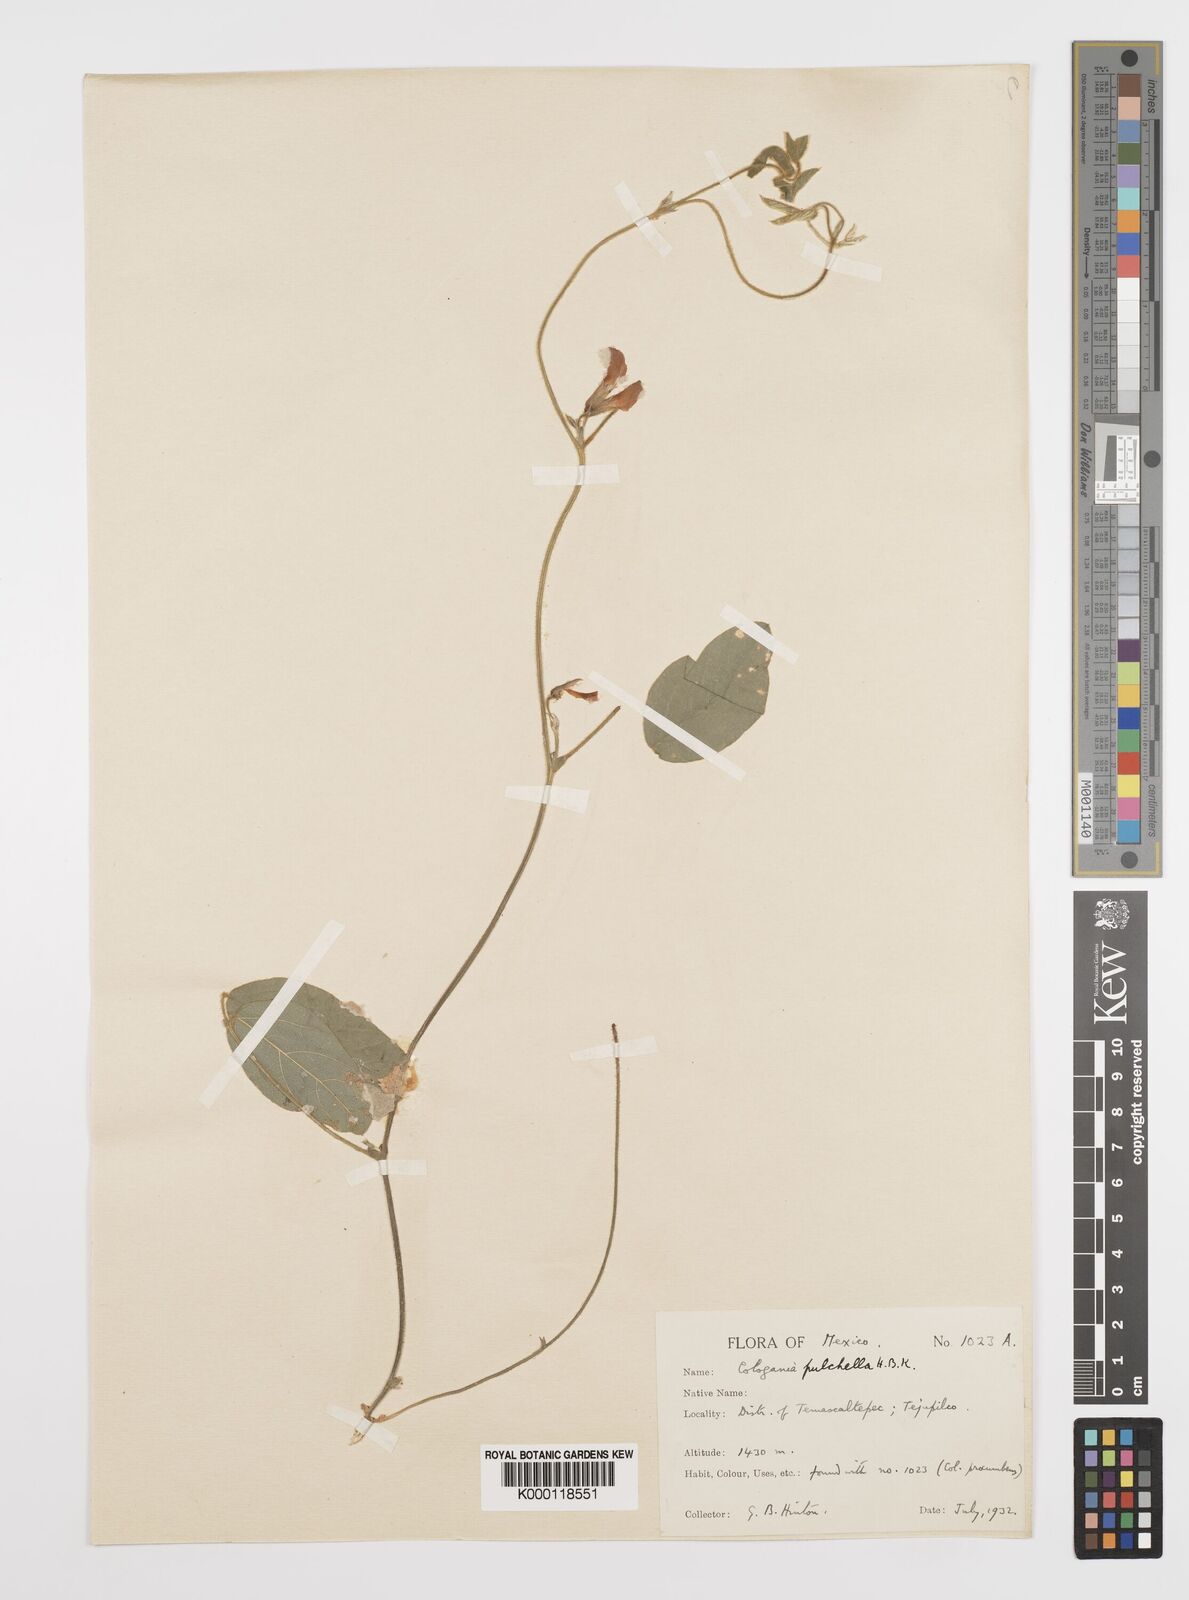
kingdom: Plantae
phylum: Tracheophyta
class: Magnoliopsida
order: Fabales
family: Fabaceae
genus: Cologania
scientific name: Cologania broussonetii
